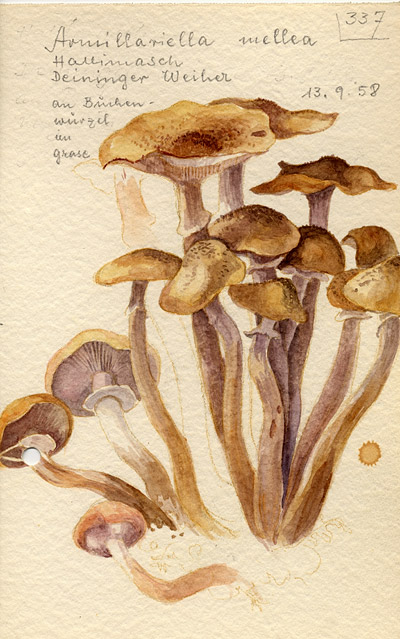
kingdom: Fungi
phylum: Basidiomycota
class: Agaricomycetes
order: Agaricales
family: Physalacriaceae
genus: Armillaria
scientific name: Armillaria mellea
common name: Honey fungus
